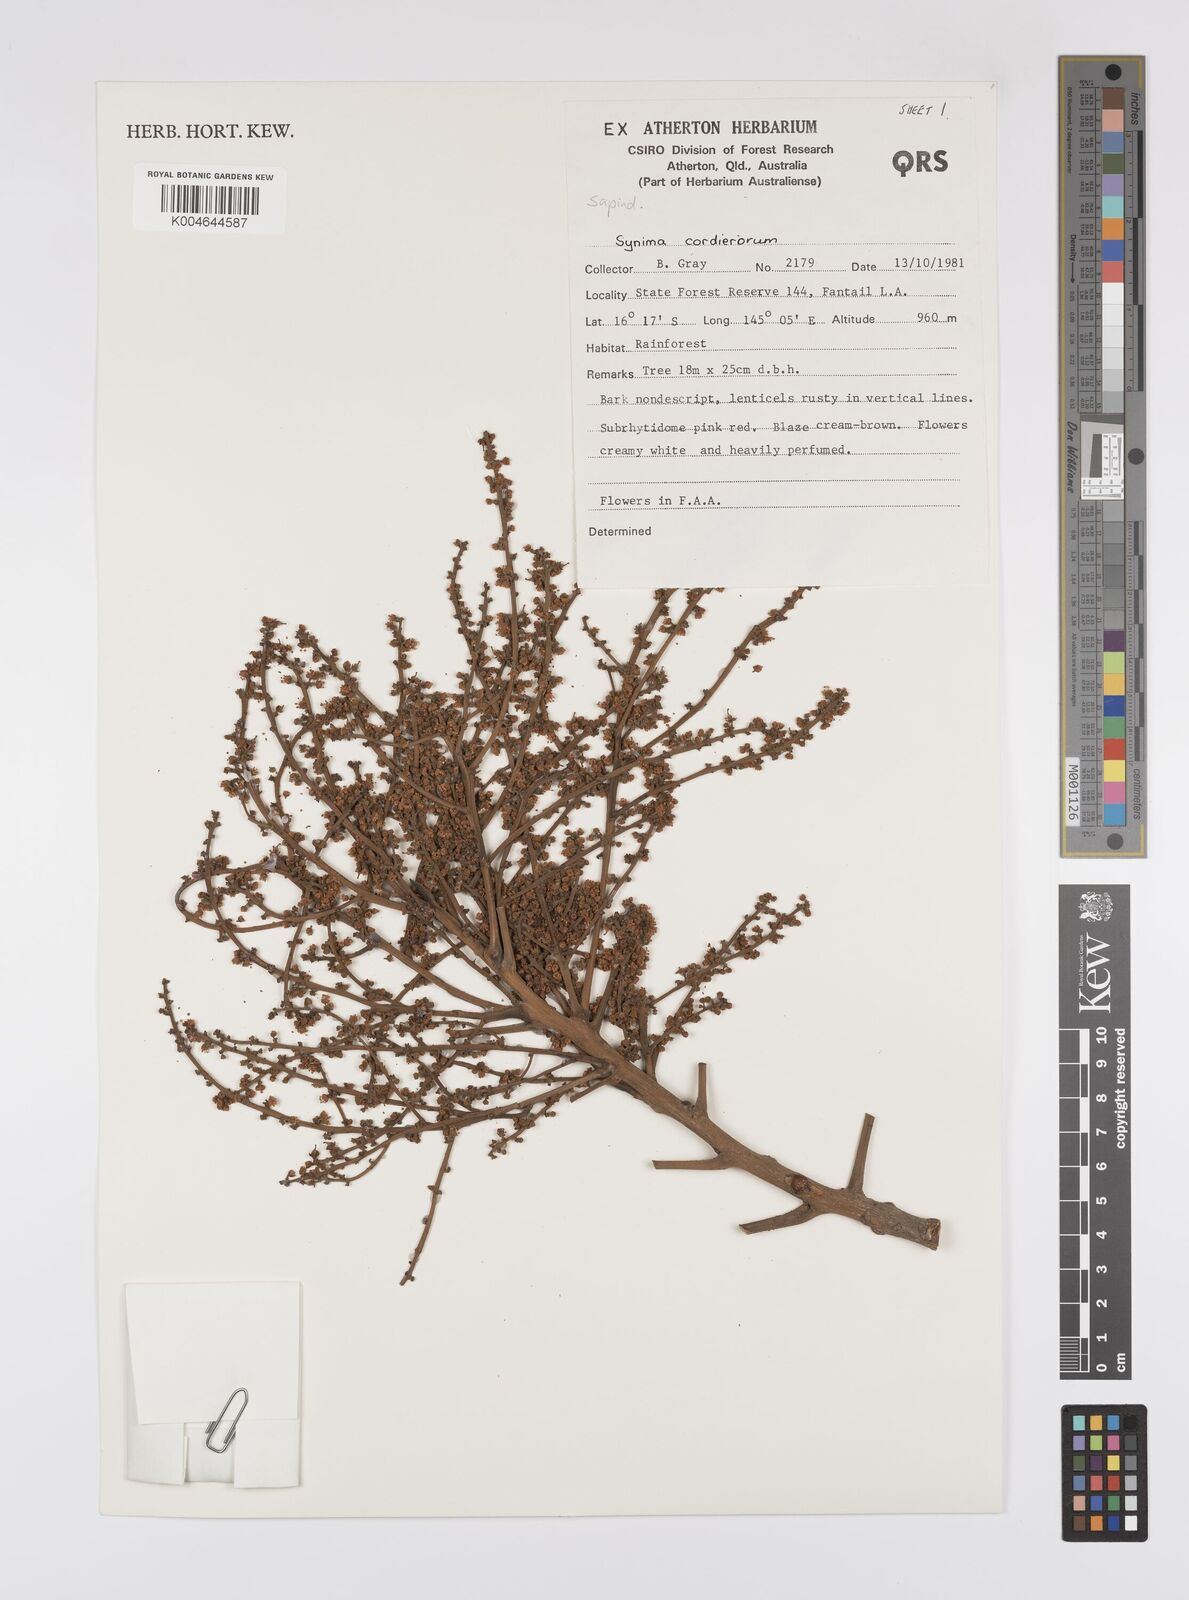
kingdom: Plantae
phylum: Tracheophyta
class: Magnoliopsida
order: Sapindales
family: Sapindaceae
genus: Synima
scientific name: Synima
